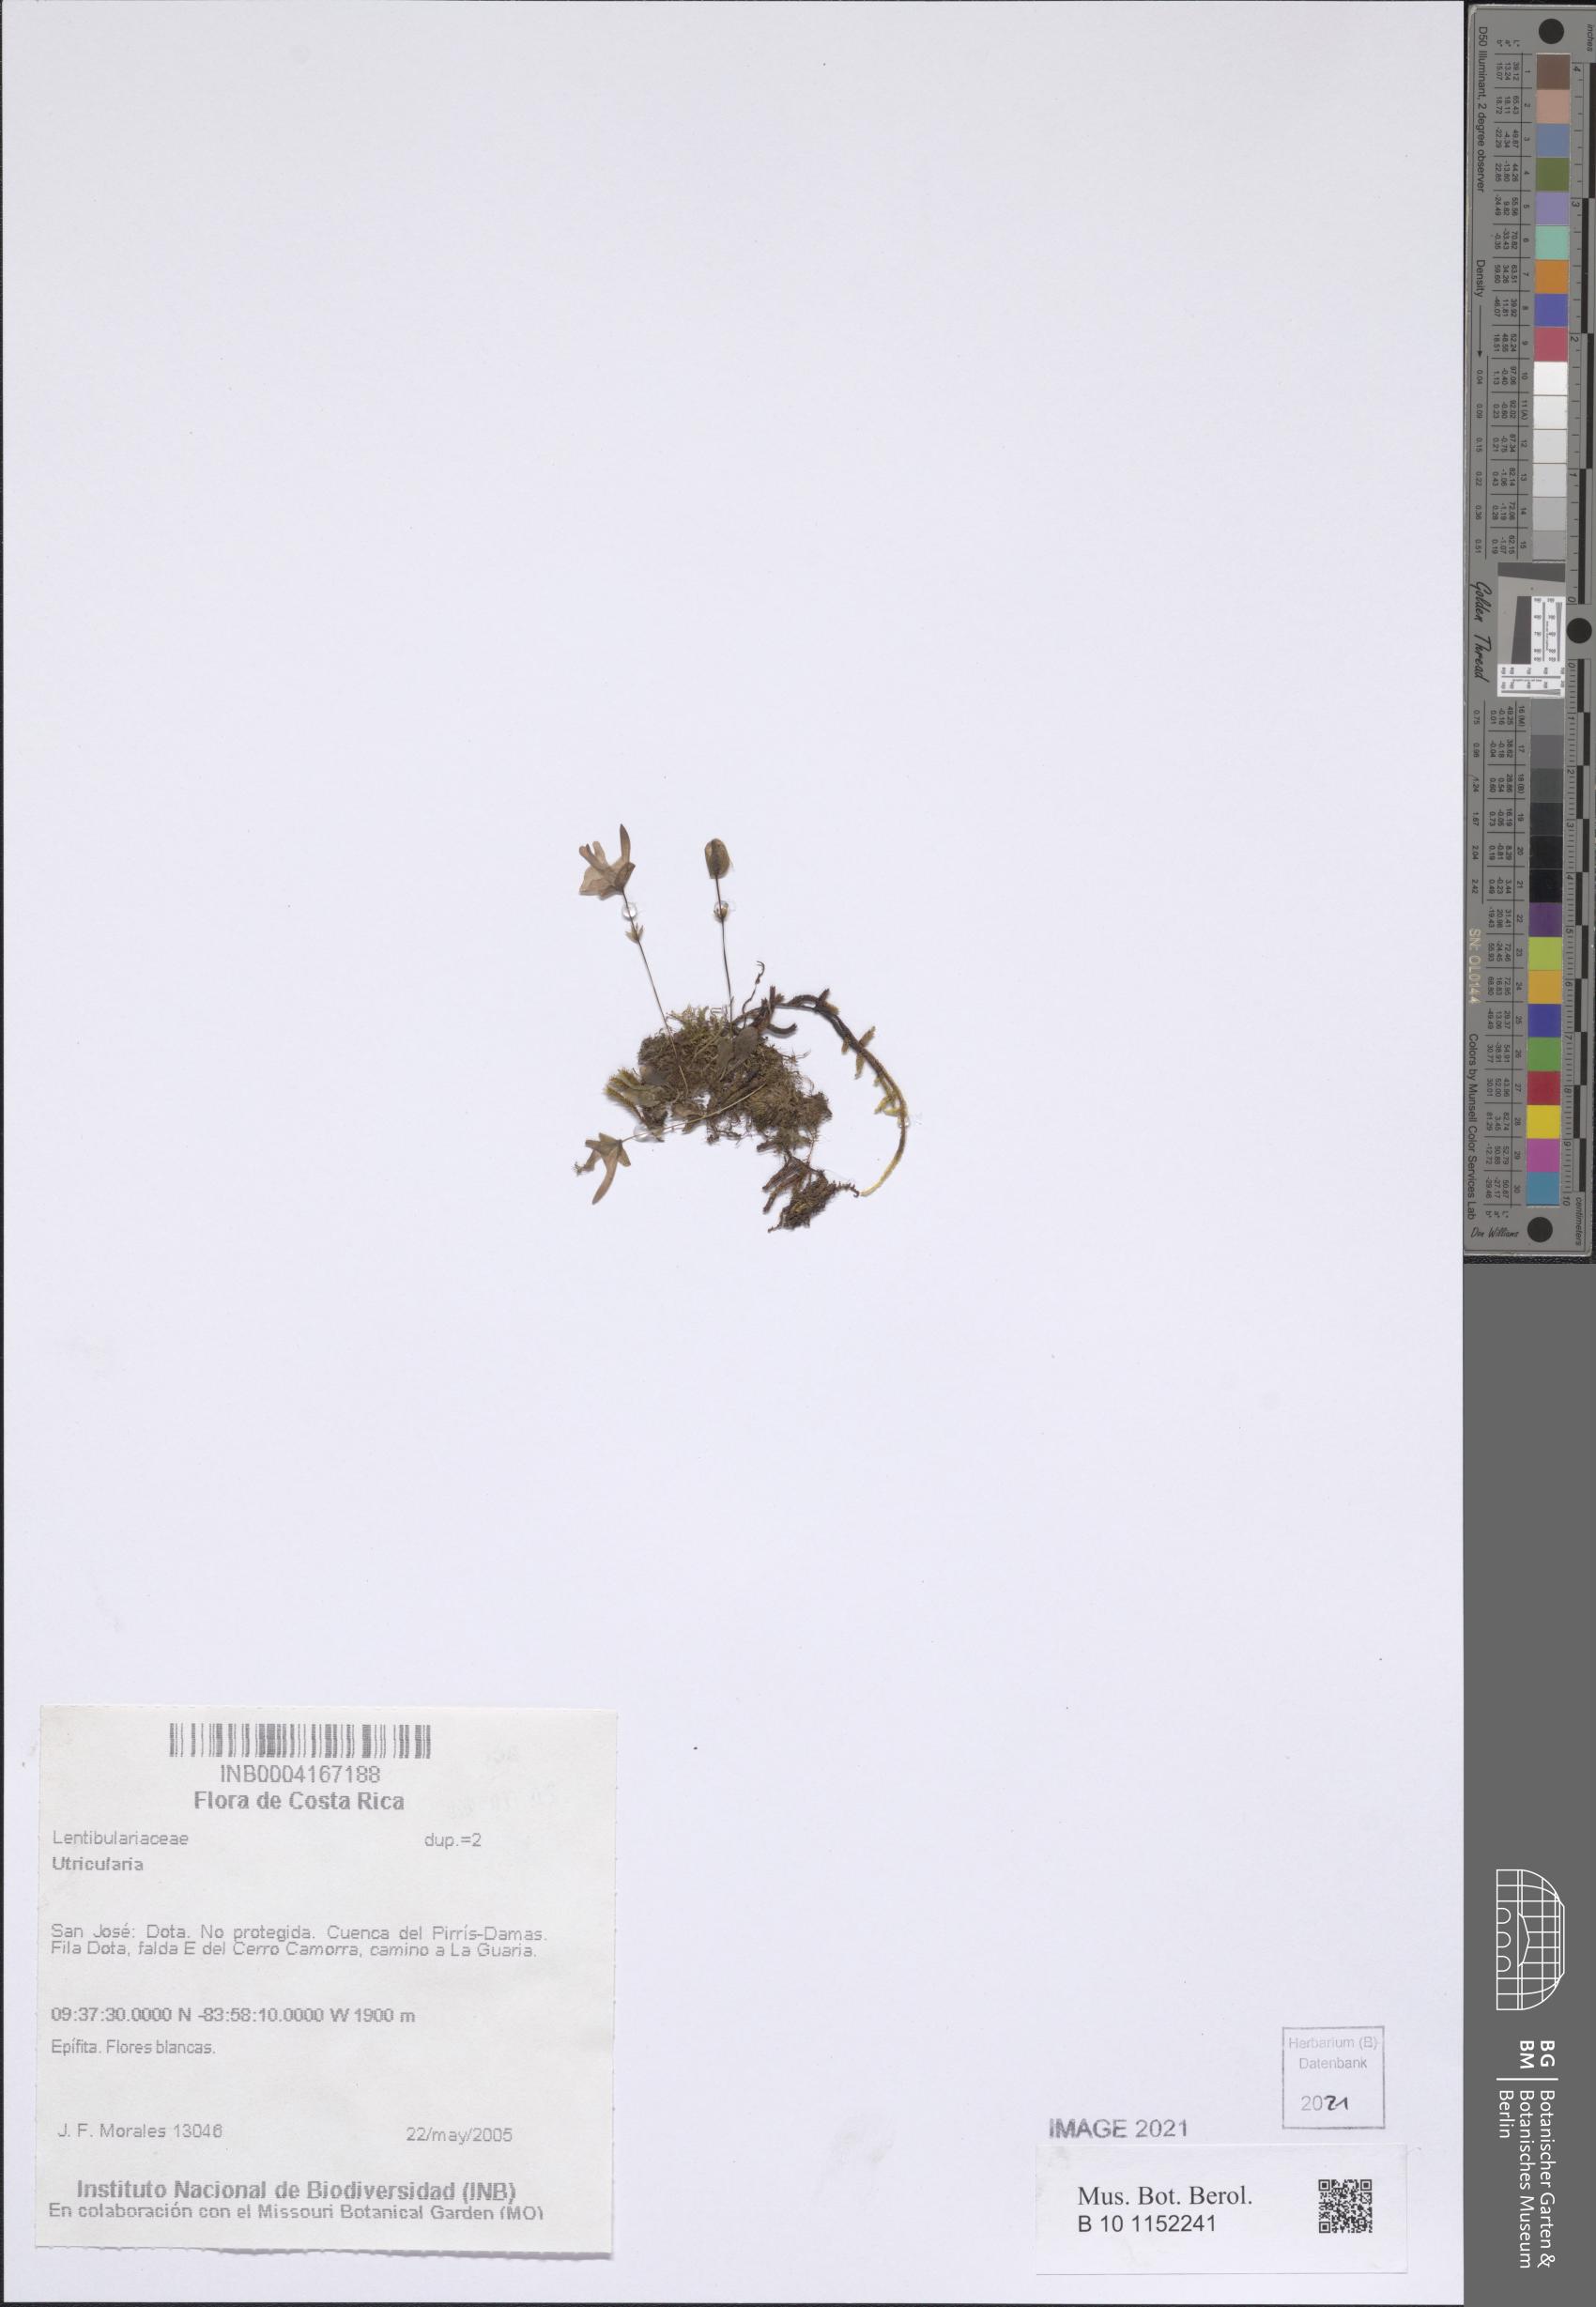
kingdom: Plantae
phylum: Tracheophyta
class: Magnoliopsida
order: Lamiales
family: Lentibulariaceae
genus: Utricularia
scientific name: Utricularia
